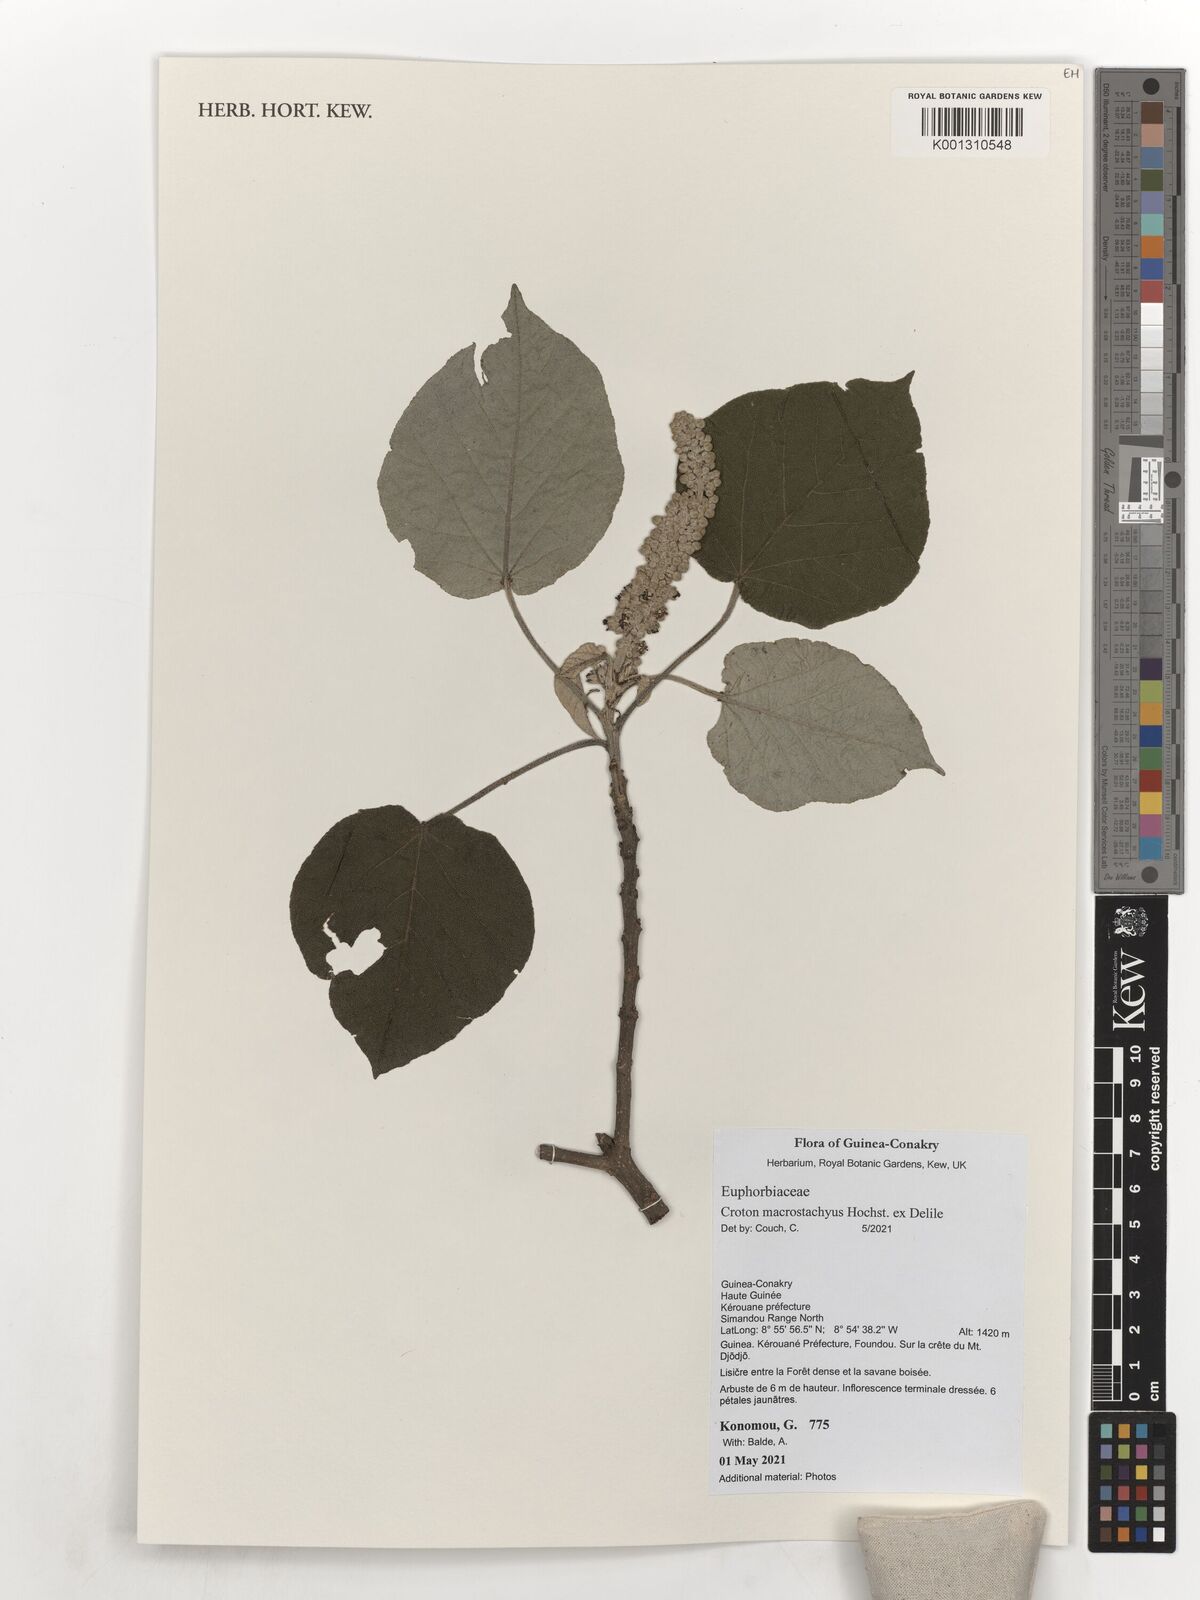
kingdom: Plantae
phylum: Tracheophyta
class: Magnoliopsida
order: Malpighiales
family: Euphorbiaceae
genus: Croton
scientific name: Croton macrostachyus
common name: Mutundu
